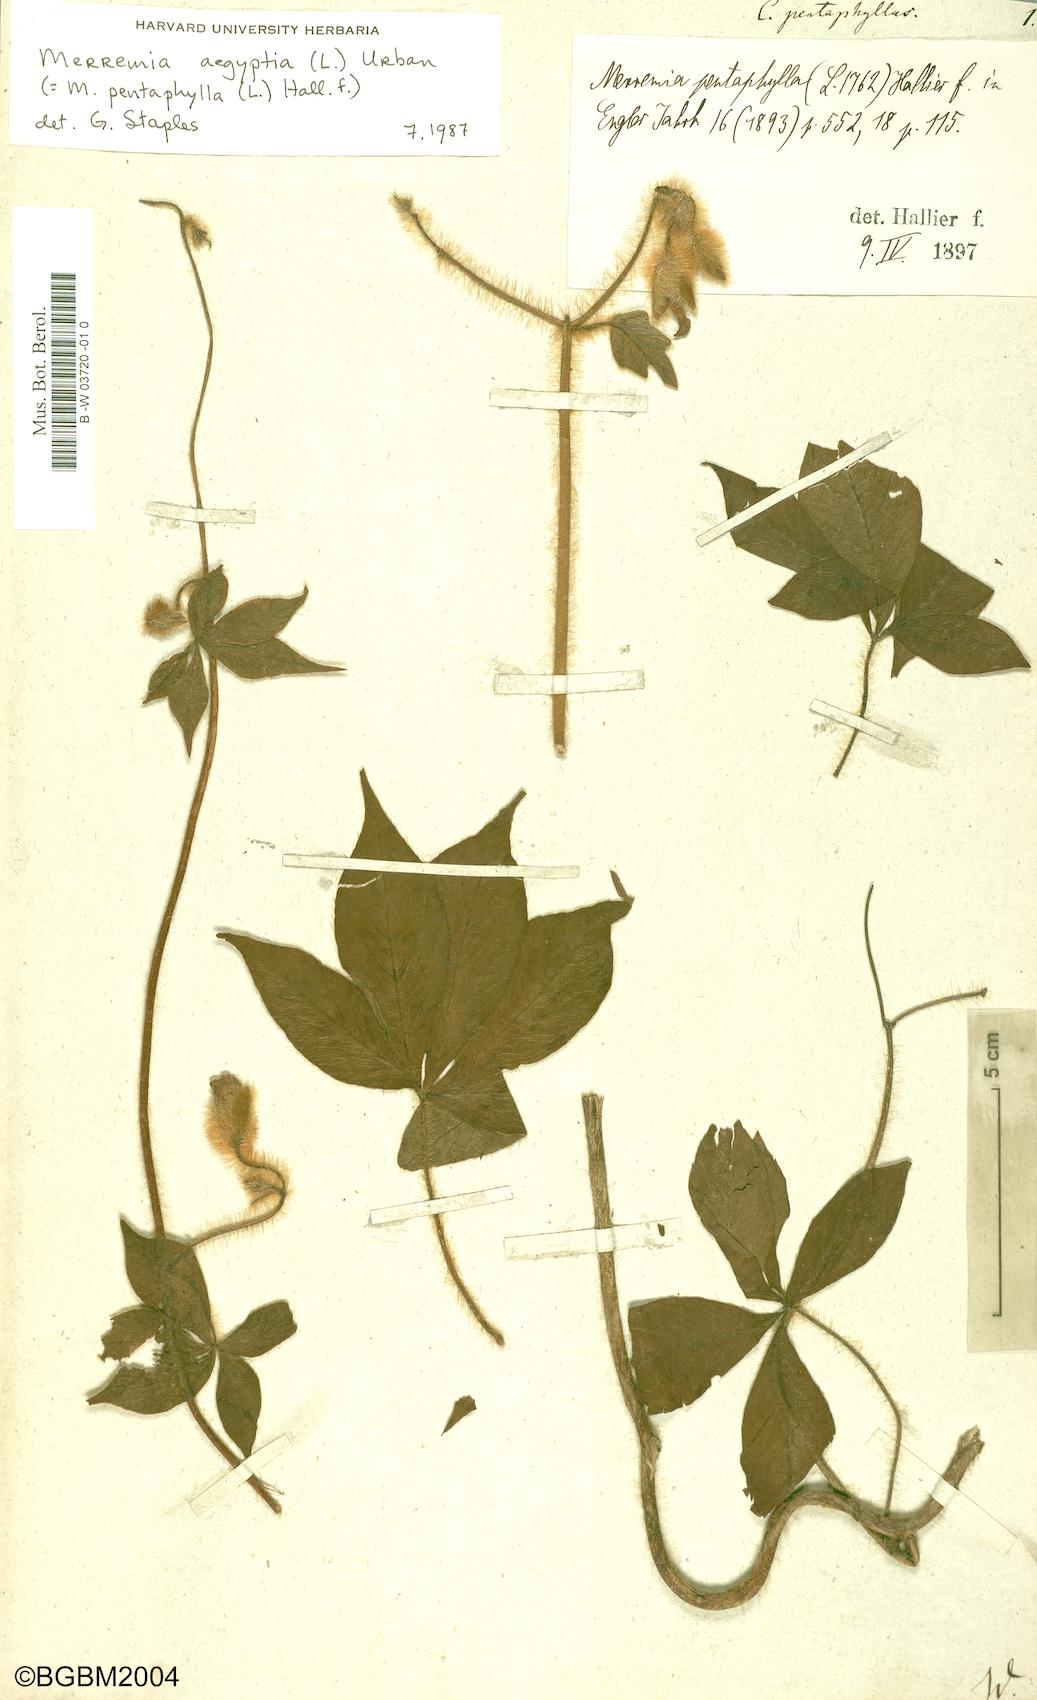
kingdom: Plantae
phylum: Tracheophyta
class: Magnoliopsida
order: Solanales
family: Convolvulaceae
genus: Distimake
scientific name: Distimake
